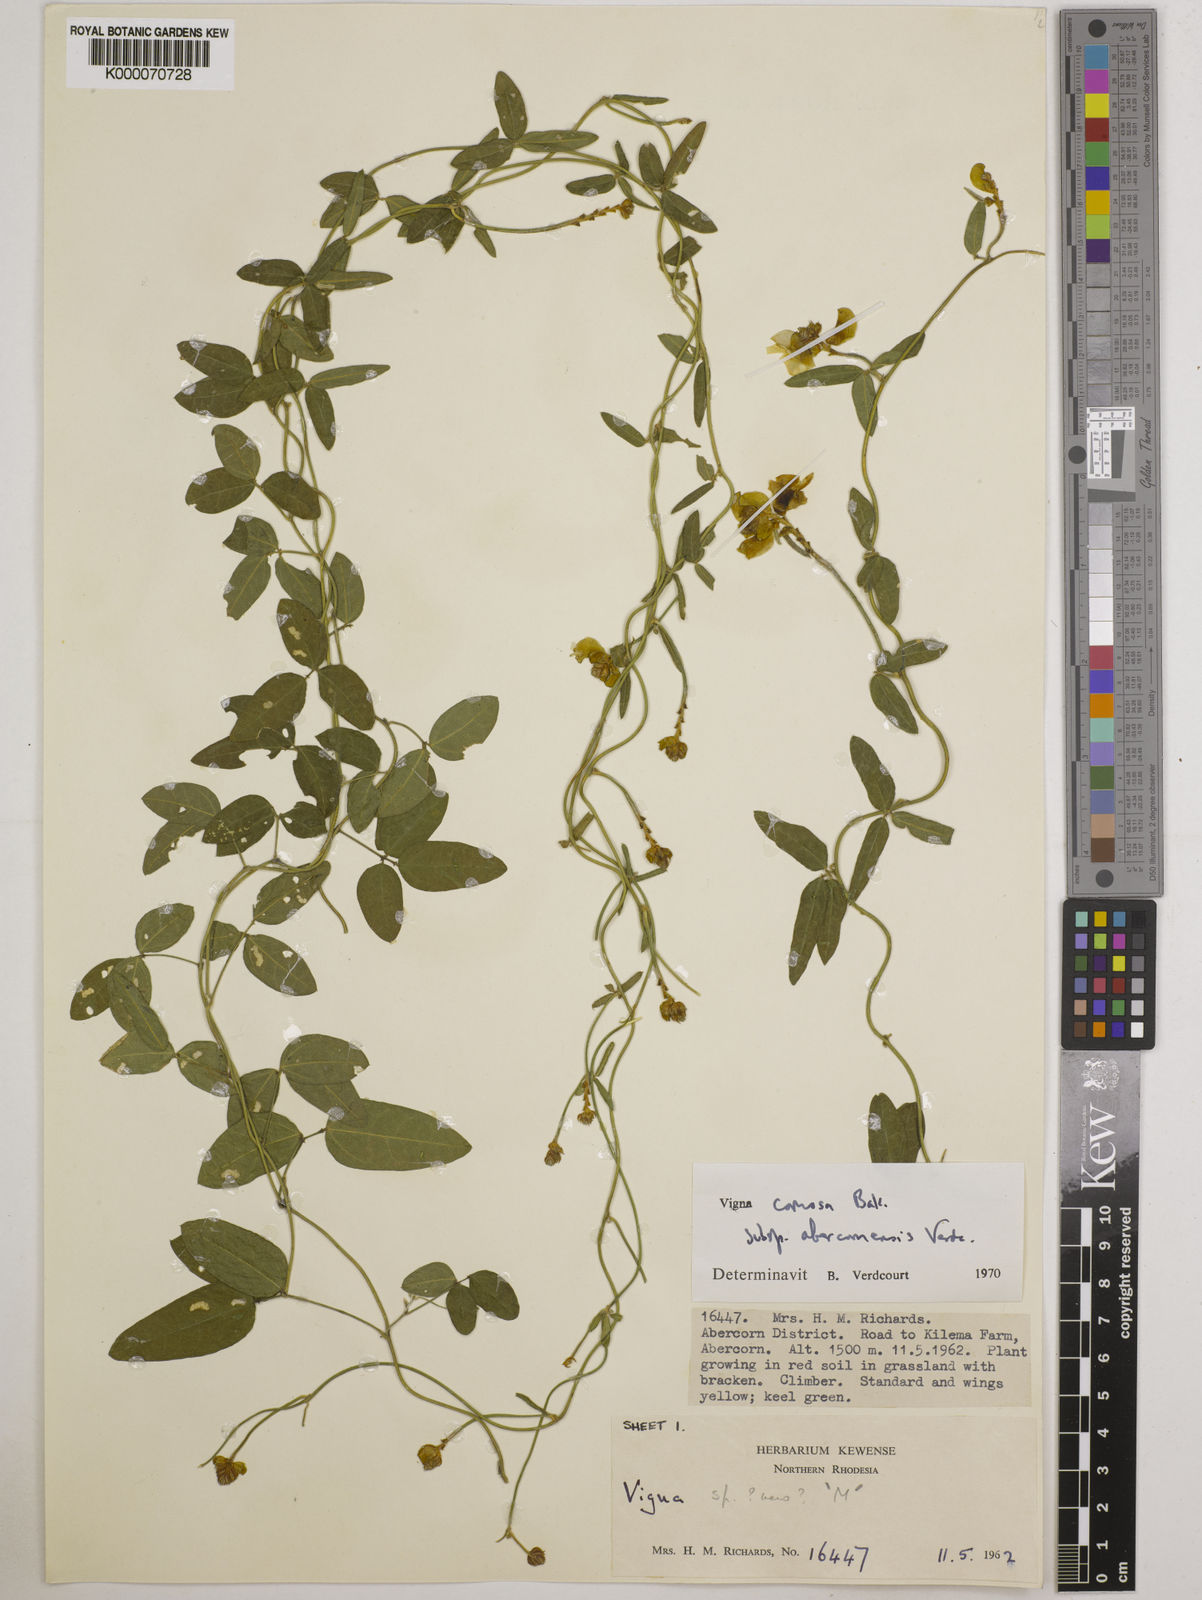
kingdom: Plantae
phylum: Tracheophyta
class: Magnoliopsida
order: Fabales
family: Fabaceae
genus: Vigna
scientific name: Vigna comosa
